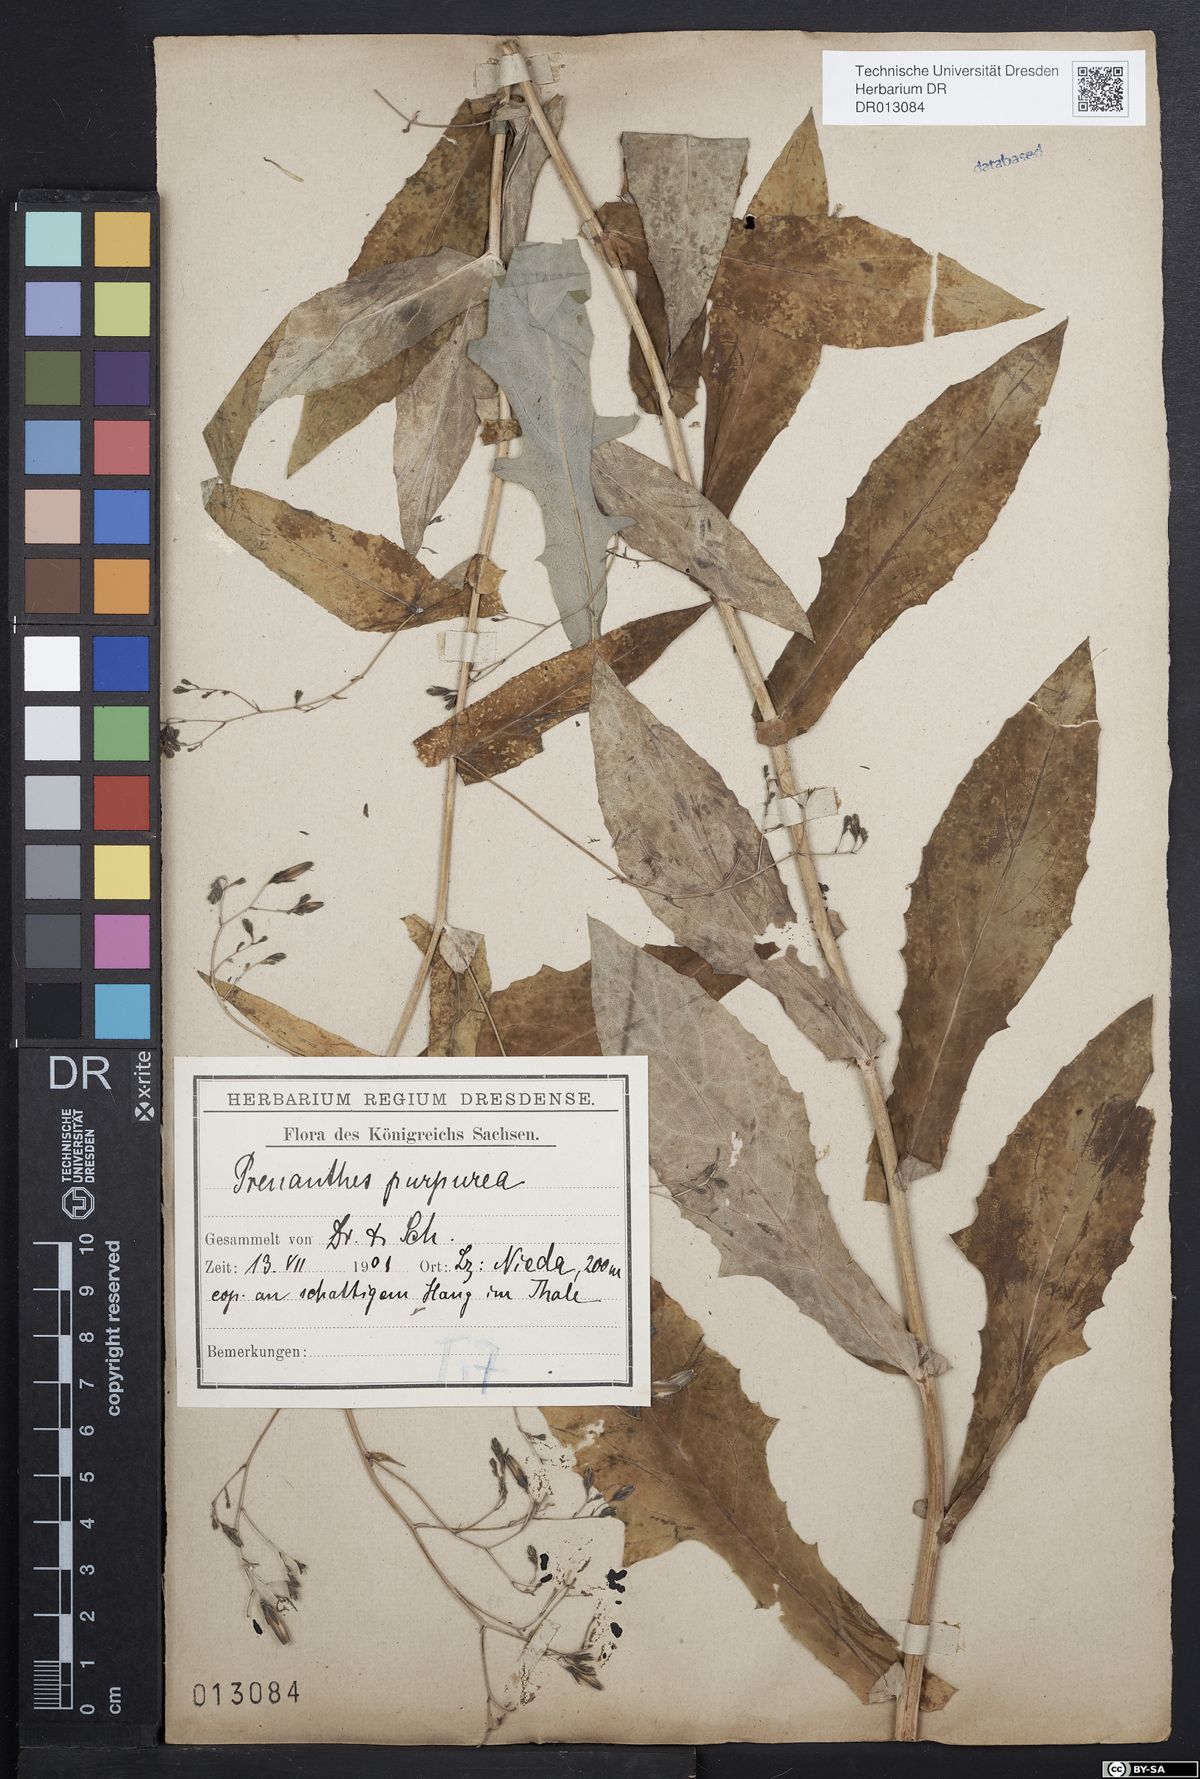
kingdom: Plantae
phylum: Tracheophyta
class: Magnoliopsida
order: Asterales
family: Asteraceae
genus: Prenanthes
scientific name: Prenanthes purpurea
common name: Purple lettuce
